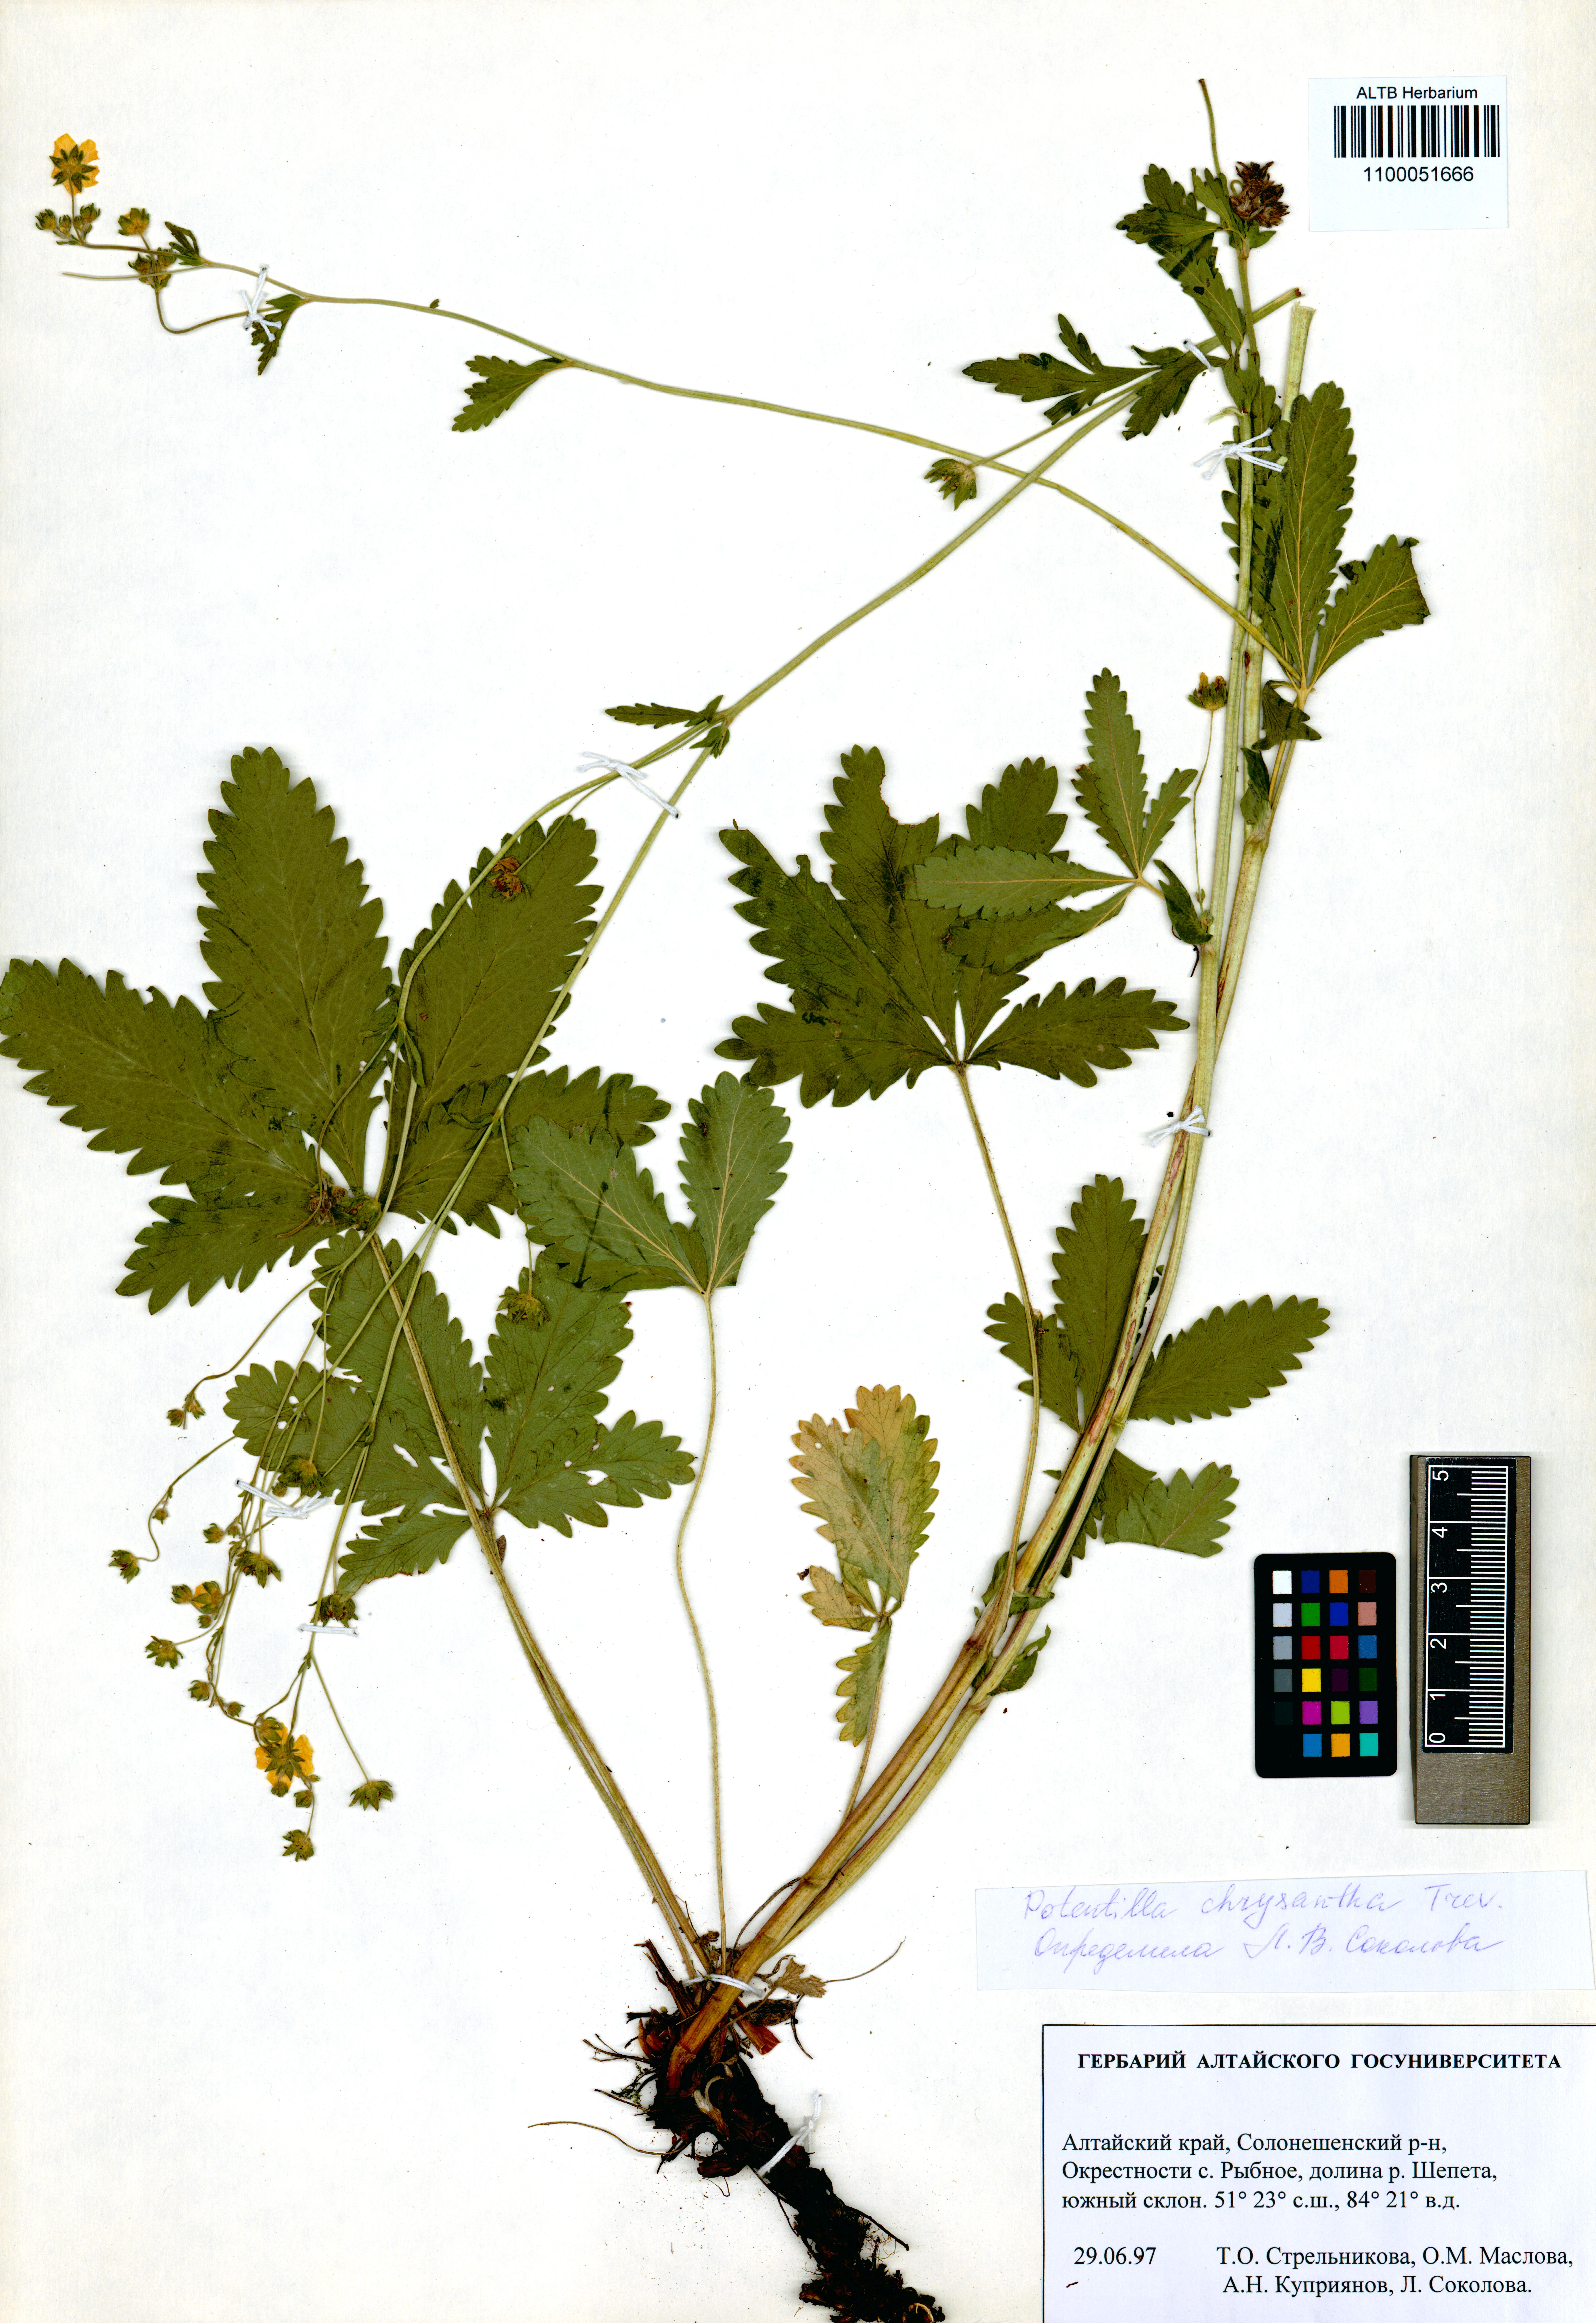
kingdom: Plantae
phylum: Tracheophyta
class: Magnoliopsida
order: Rosales
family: Rosaceae
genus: Potentilla
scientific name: Potentilla chrysantha
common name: Thuringian cinquefoil
